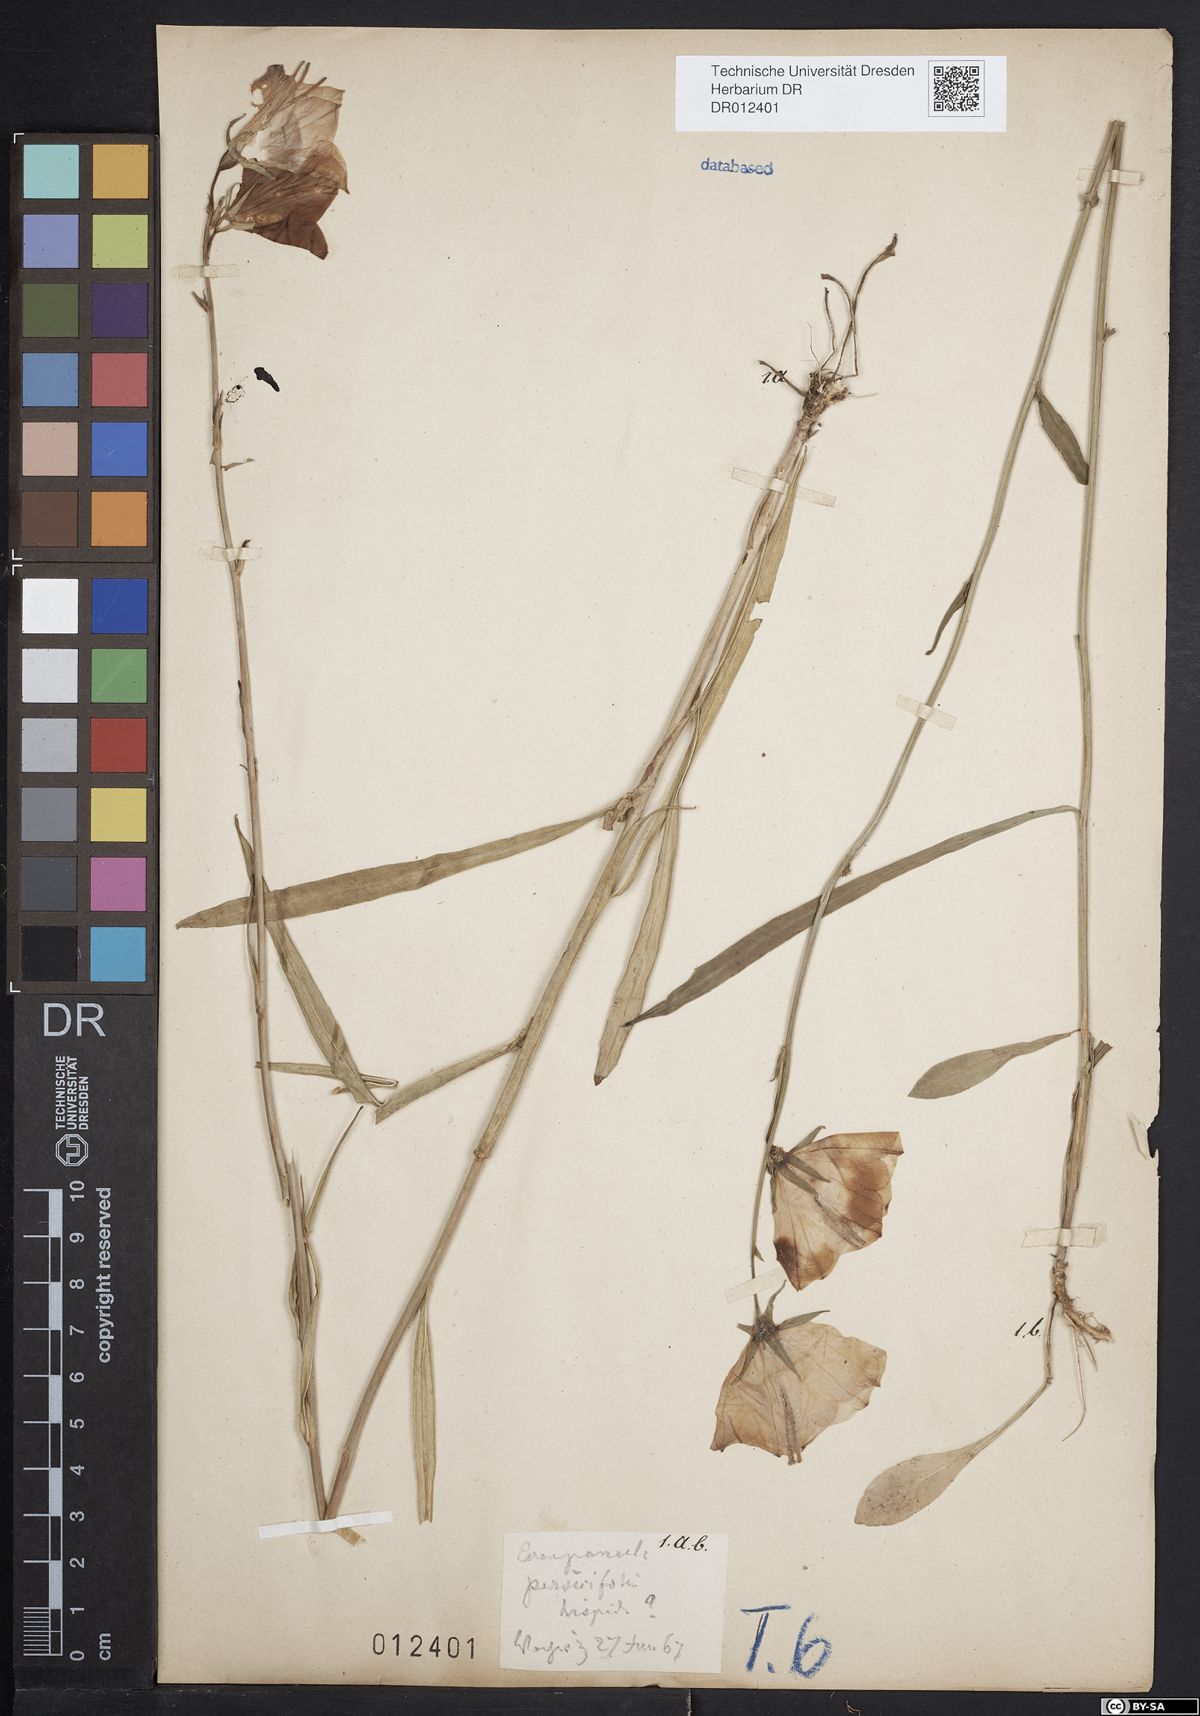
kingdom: Plantae
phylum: Tracheophyta
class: Magnoliopsida
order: Asterales
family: Campanulaceae
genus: Campanula
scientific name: Campanula persicifolia
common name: Peach-leaved bellflower
